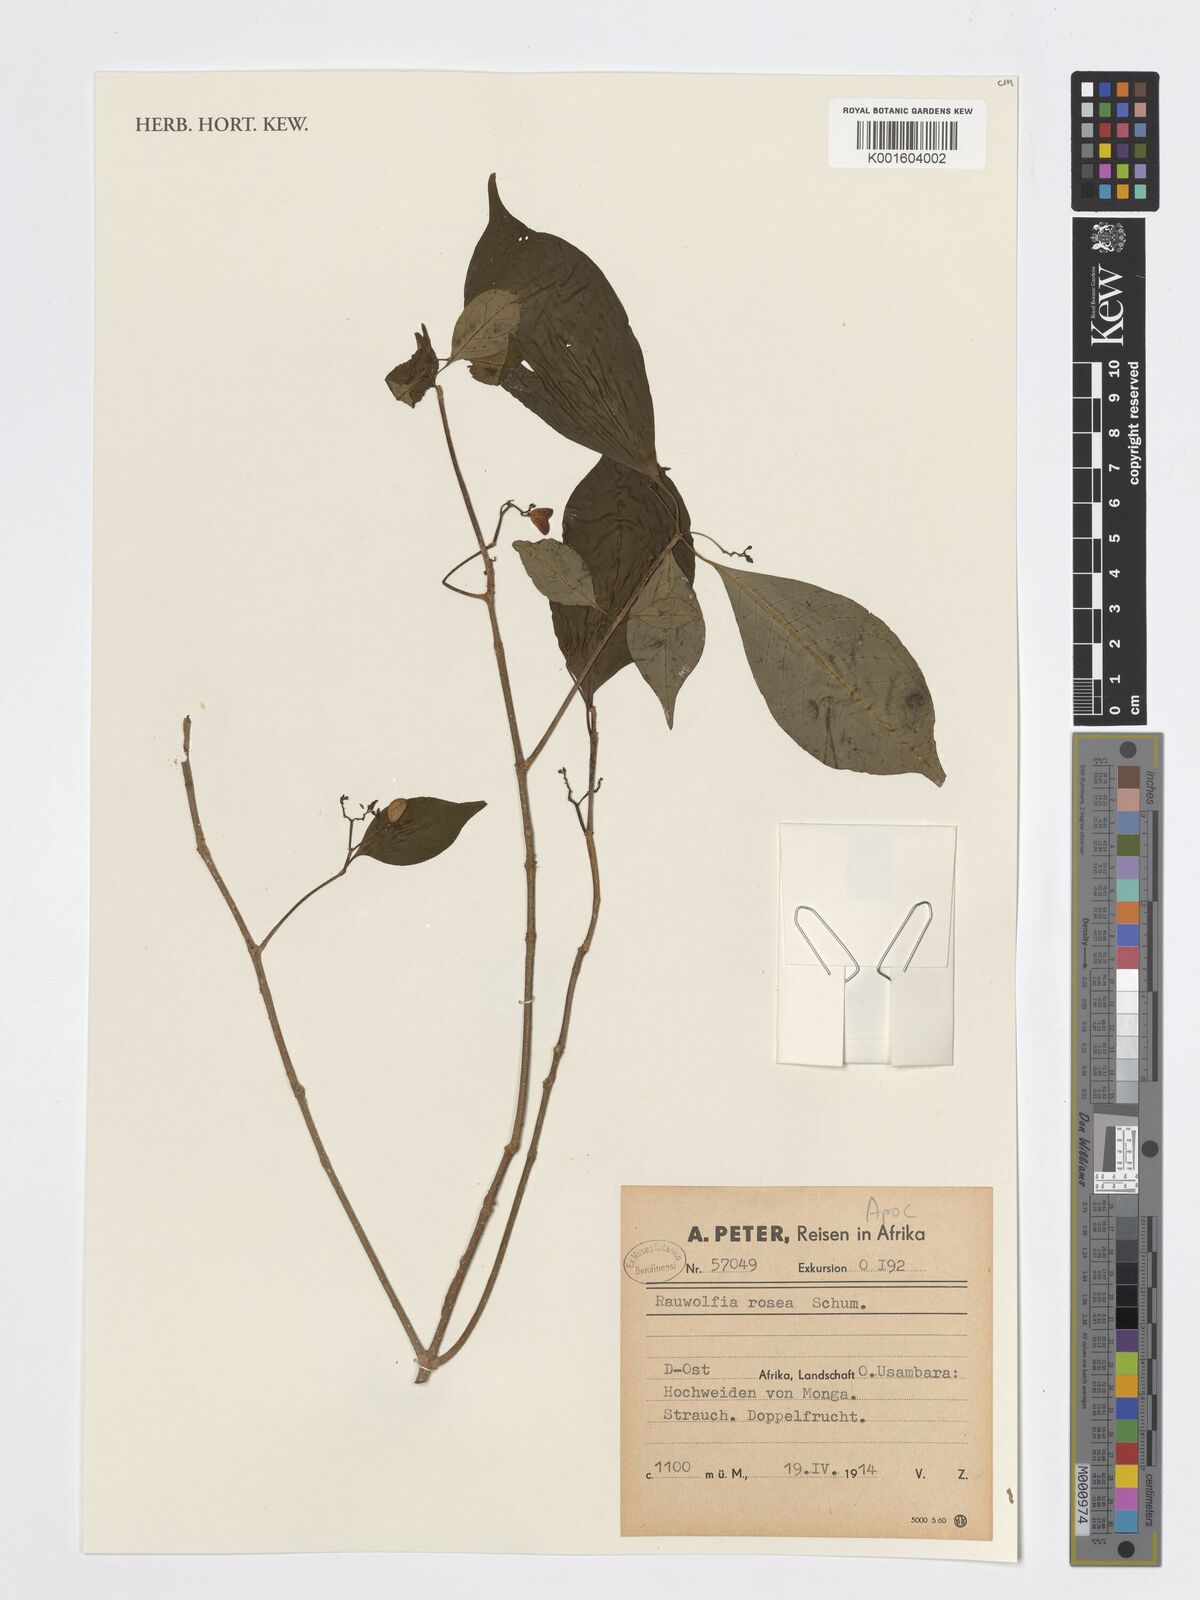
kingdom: Plantae
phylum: Tracheophyta
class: Magnoliopsida
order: Gentianales
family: Apocynaceae
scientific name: Apocynaceae
